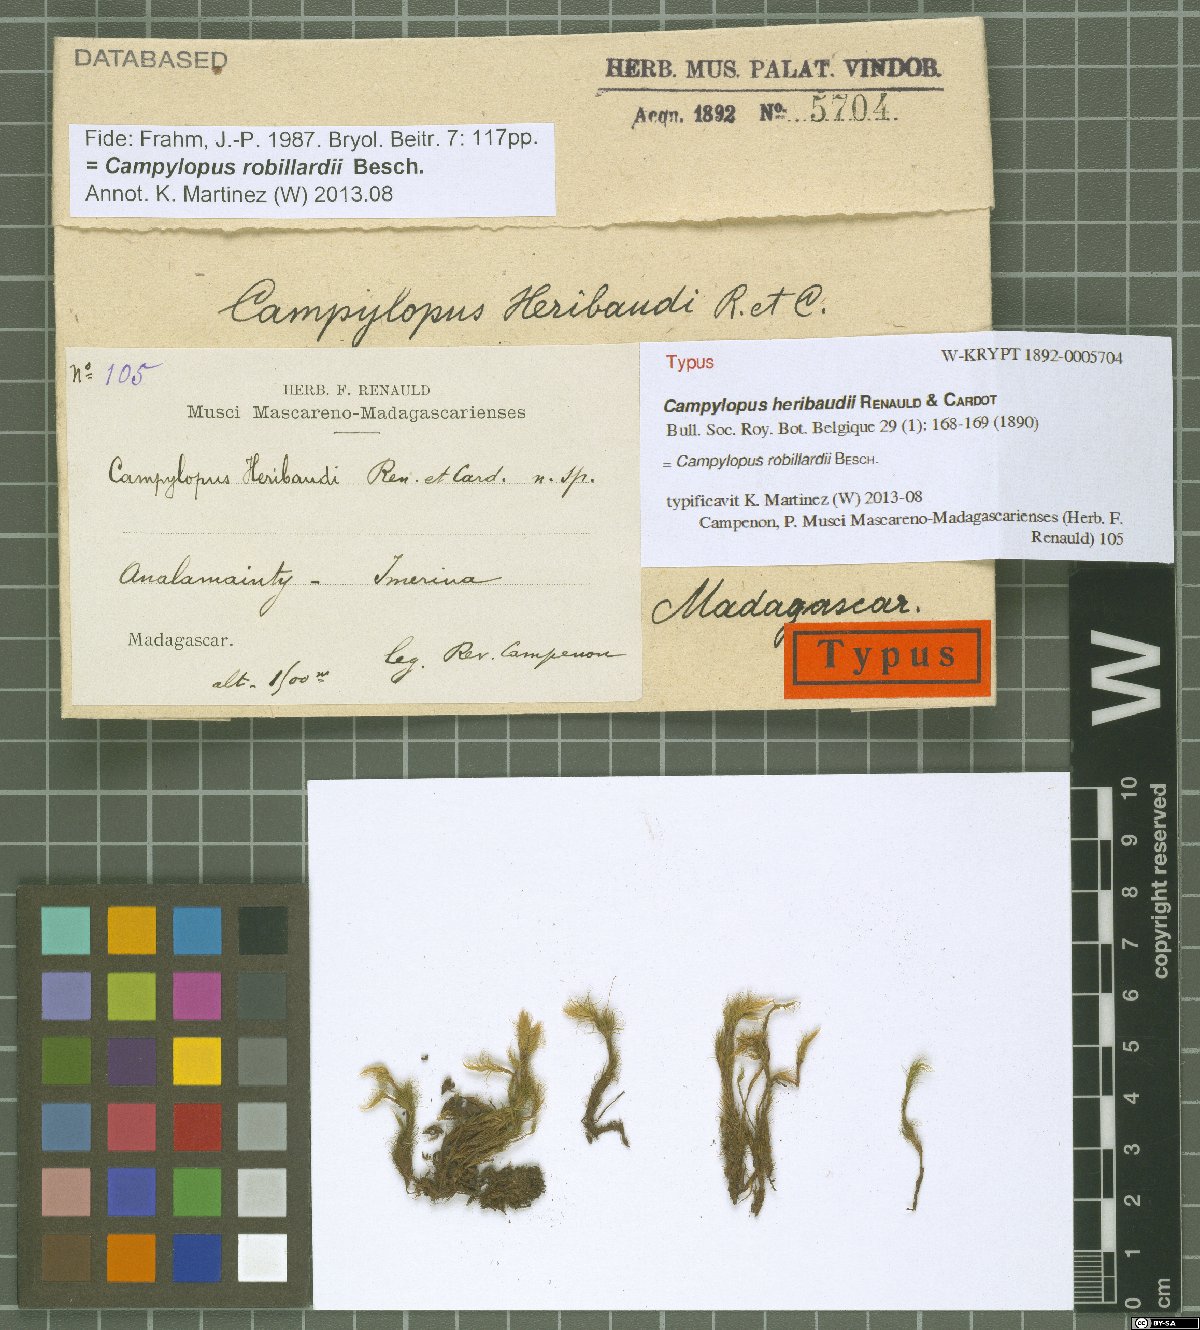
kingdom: Plantae
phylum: Bryophyta
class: Bryopsida
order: Dicranales
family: Leucobryaceae
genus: Campylopus
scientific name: Campylopus robillardii
